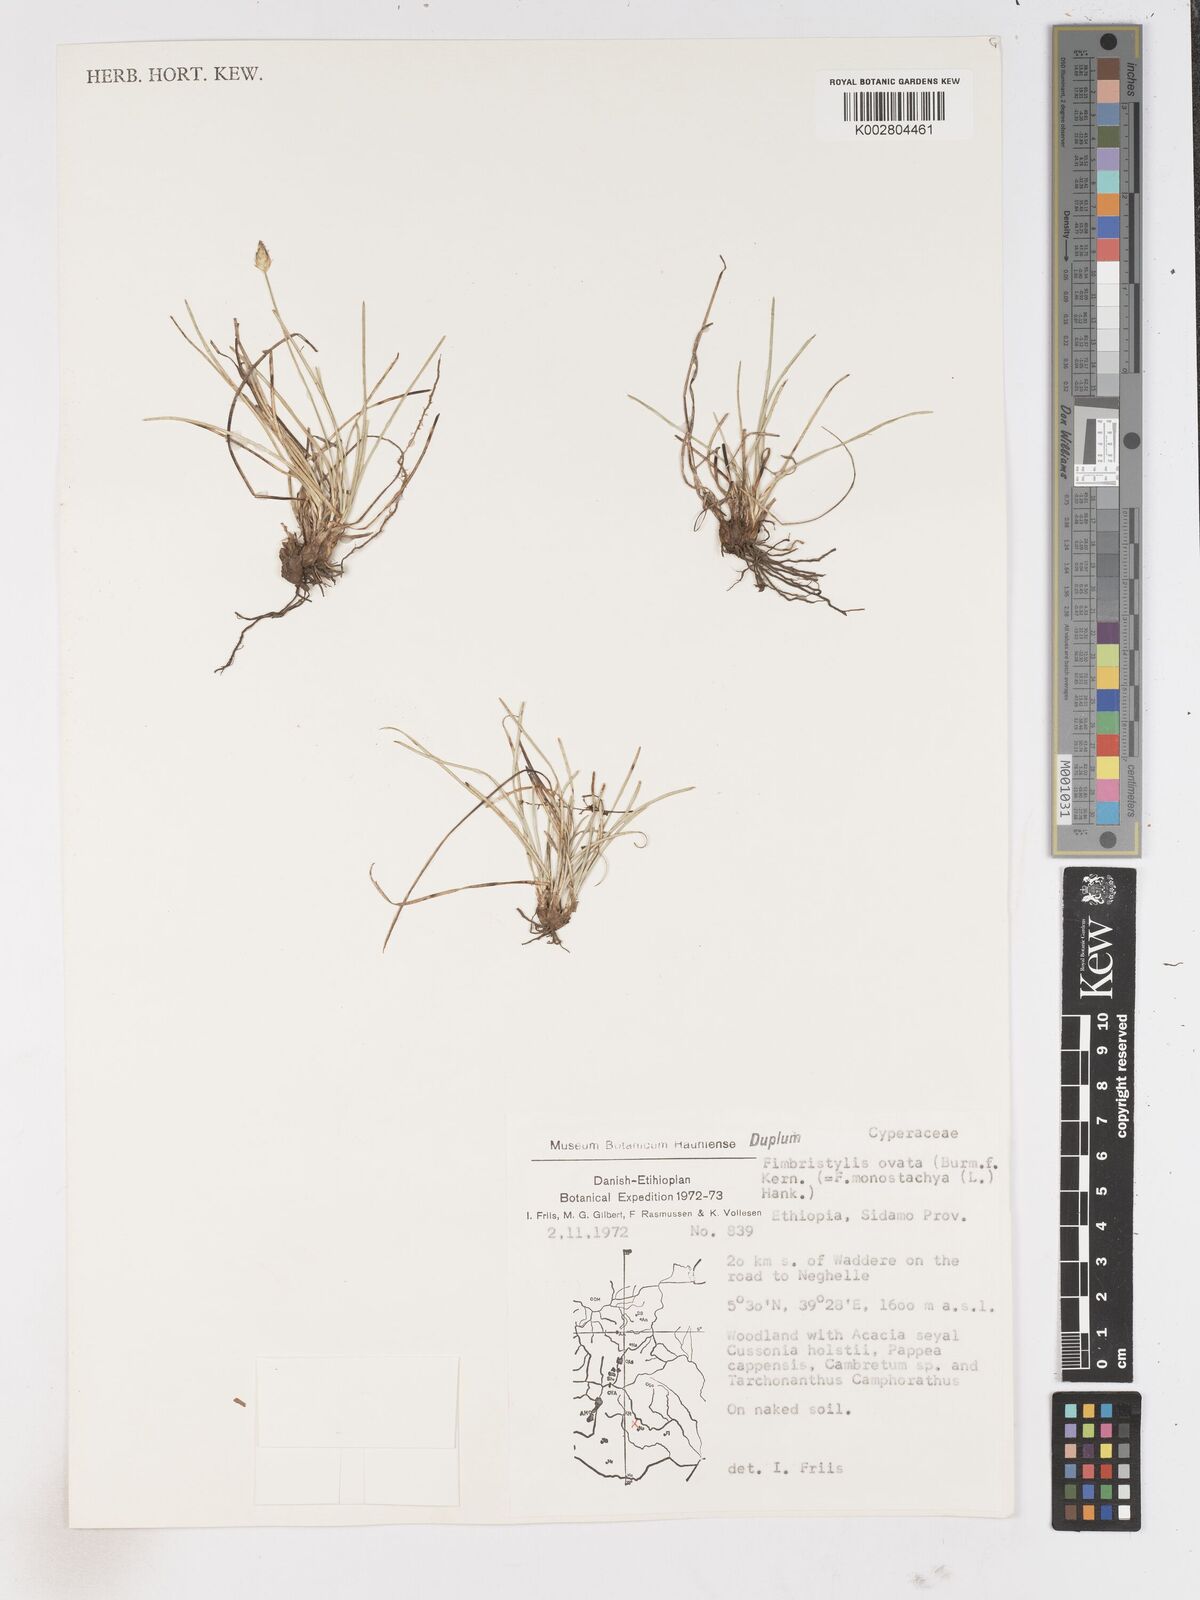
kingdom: Plantae
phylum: Tracheophyta
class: Liliopsida
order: Poales
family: Cyperaceae
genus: Abildgaardia
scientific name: Abildgaardia ovata
